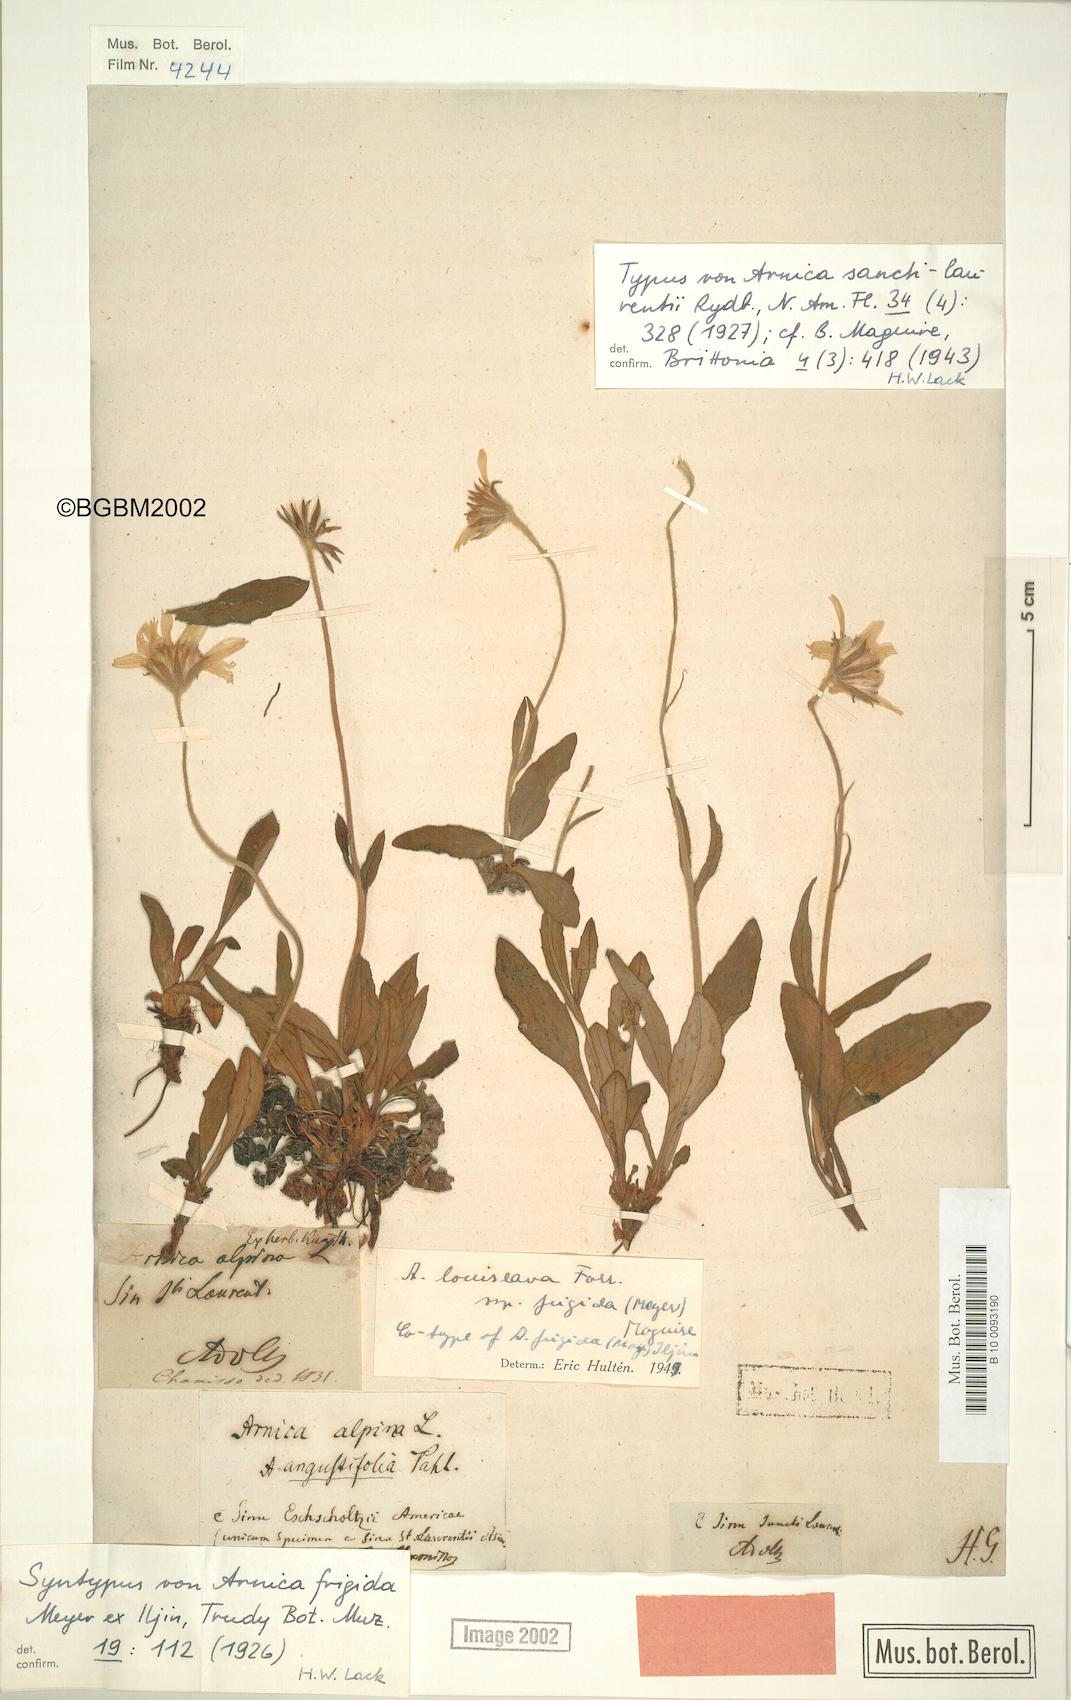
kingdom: Plantae
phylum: Tracheophyta
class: Magnoliopsida
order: Asterales
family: Asteraceae
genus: Arnica
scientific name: Arnica griscomii
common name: Snow arnica
